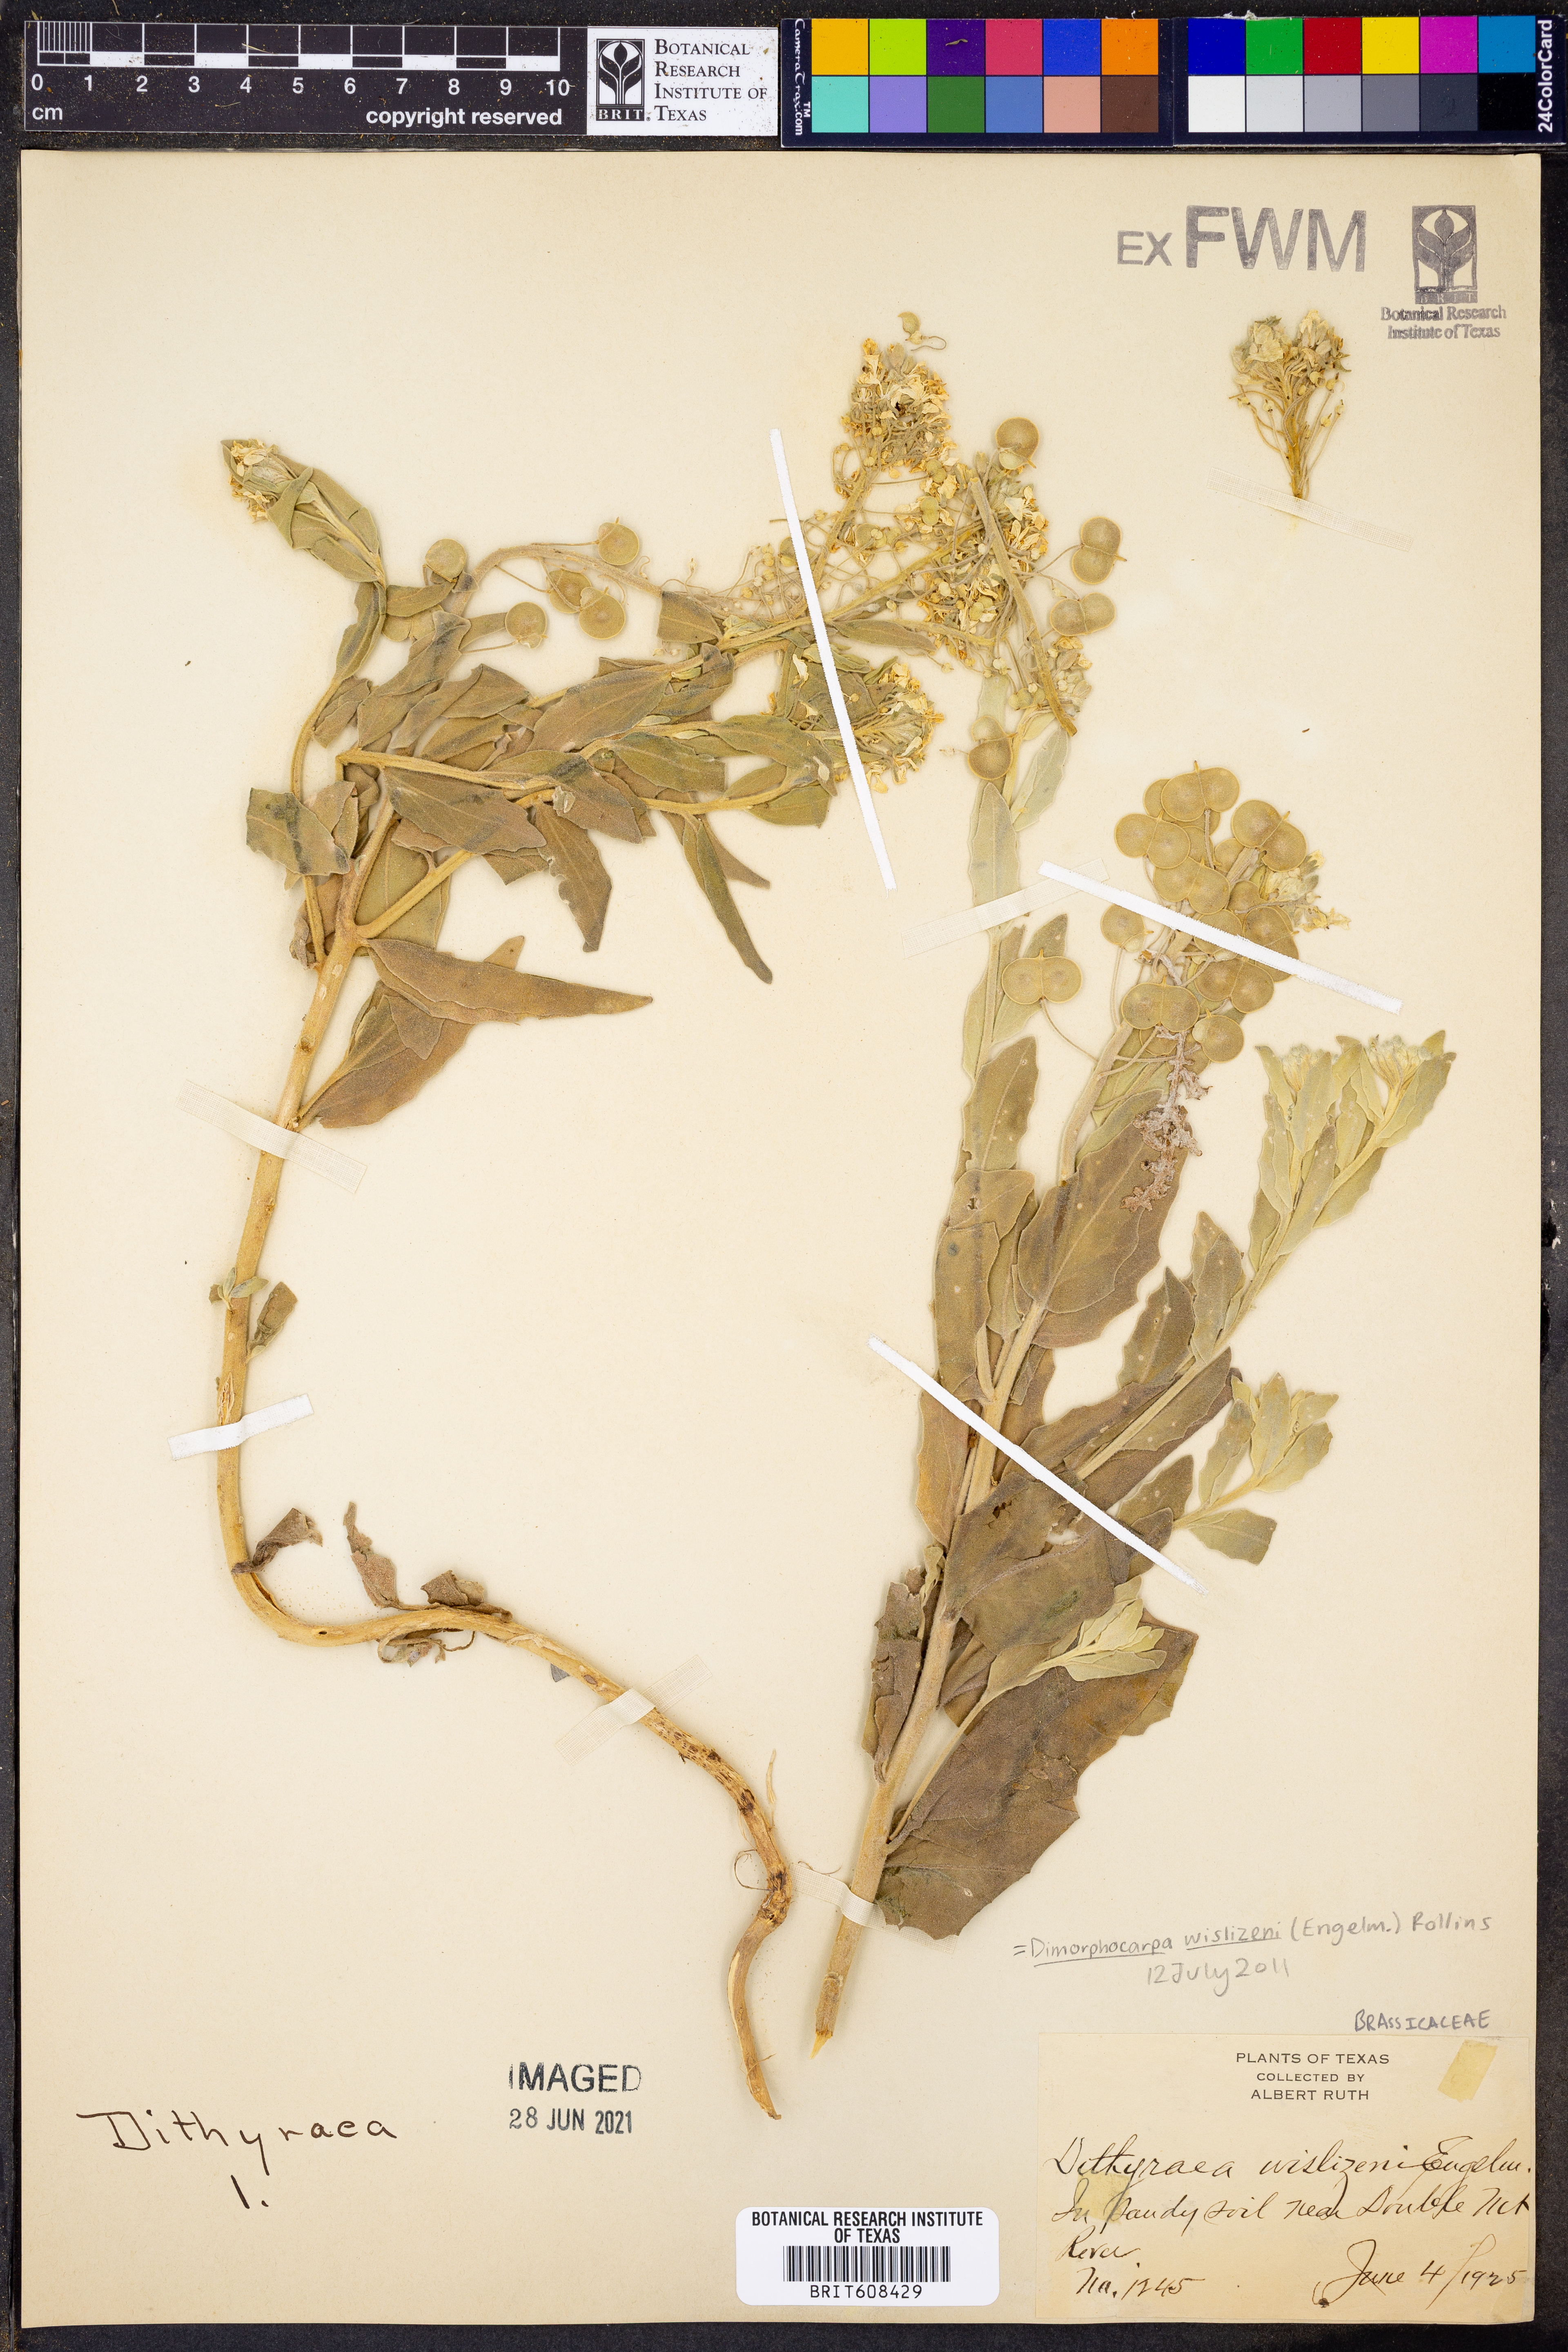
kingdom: Plantae
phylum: Tracheophyta
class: Magnoliopsida
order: Brassicales
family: Brassicaceae
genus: Dimorphocarpa
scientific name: Dimorphocarpa wislizenii
